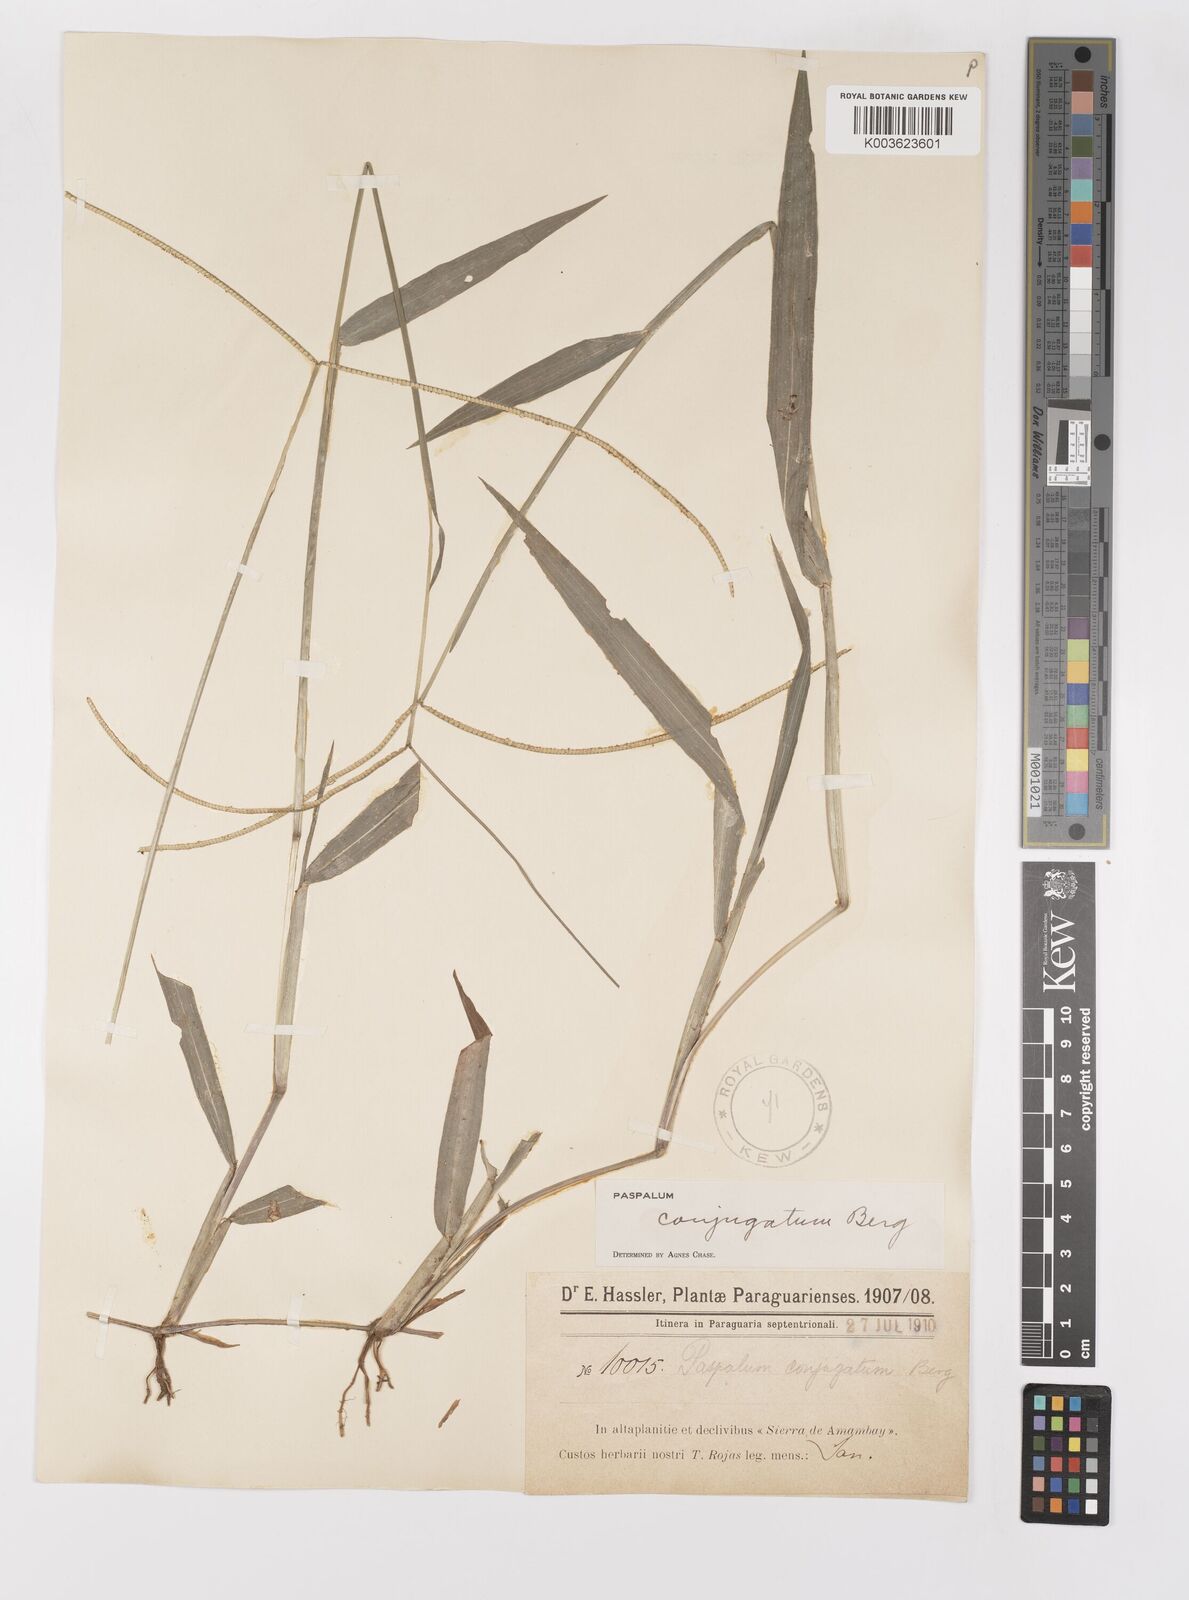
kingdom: Plantae
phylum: Tracheophyta
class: Liliopsida
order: Poales
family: Poaceae
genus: Paspalum
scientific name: Paspalum conjugatum
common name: Hilograss
